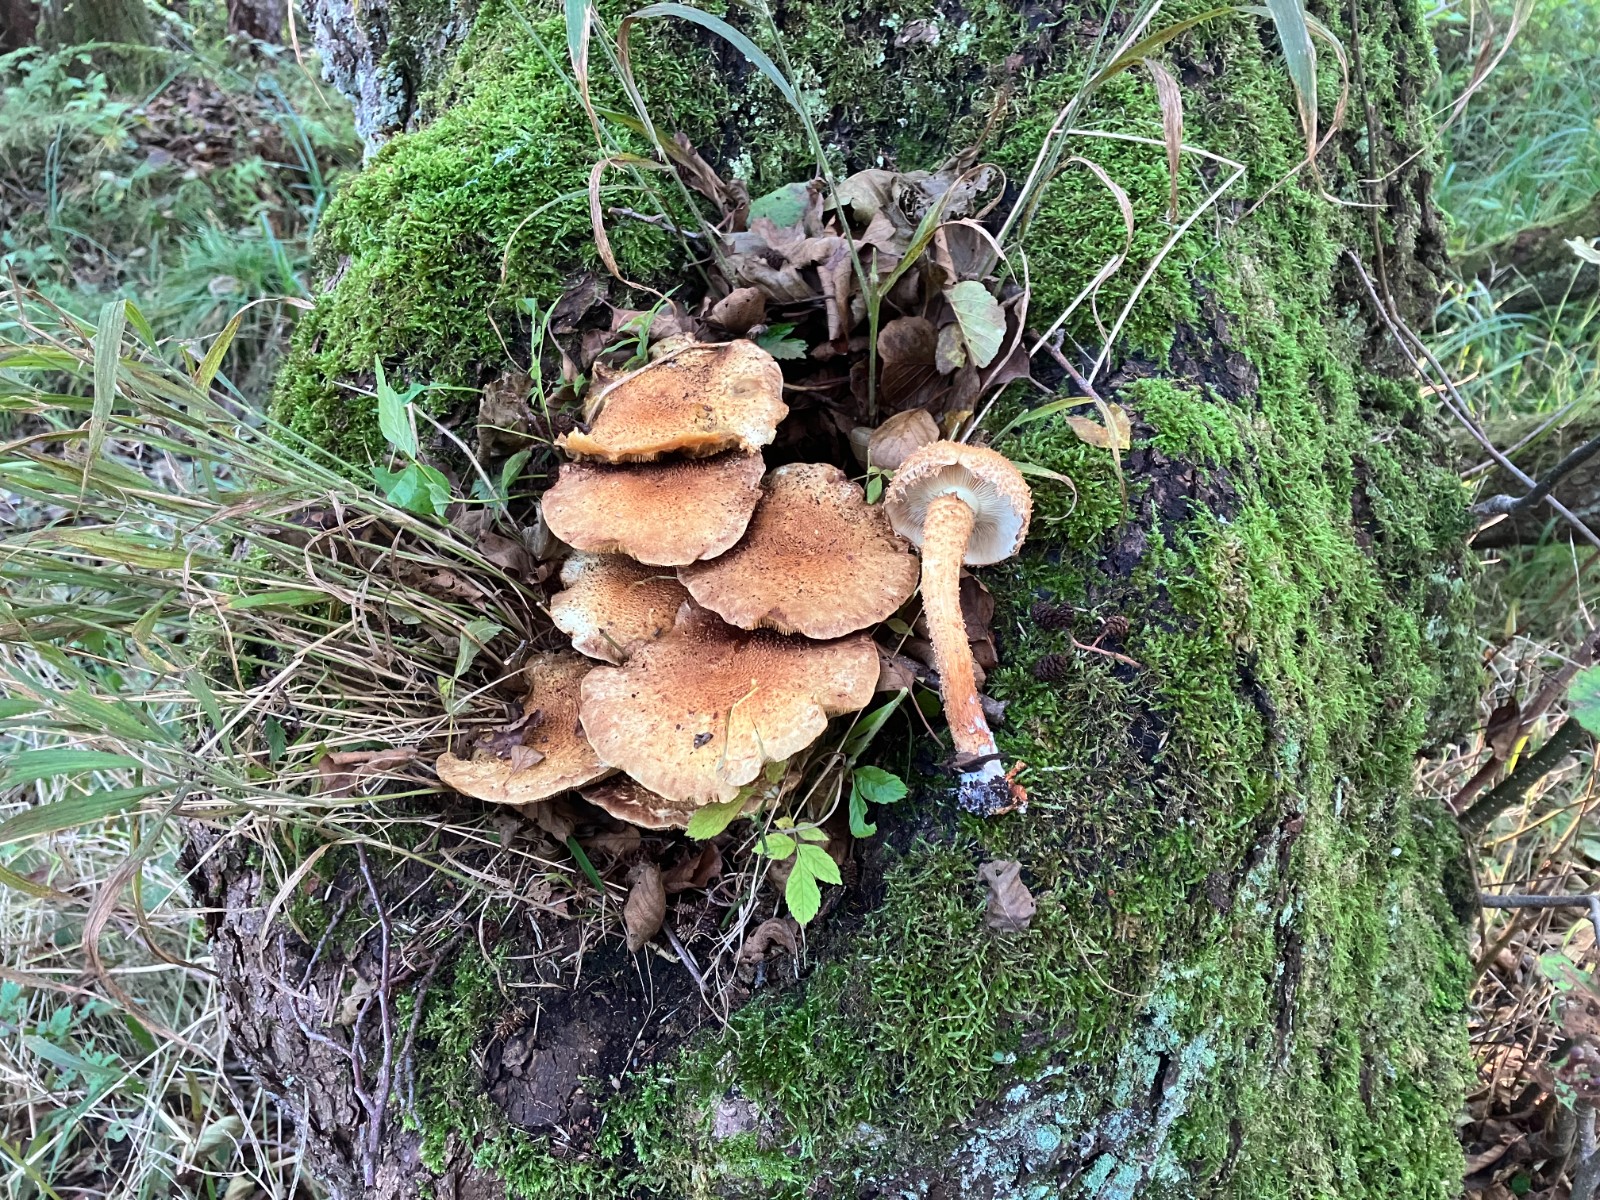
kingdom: Fungi
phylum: Basidiomycota
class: Agaricomycetes
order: Agaricales
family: Strophariaceae
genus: Pholiota
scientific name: Pholiota squarrosa
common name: krumskællet skælhat
